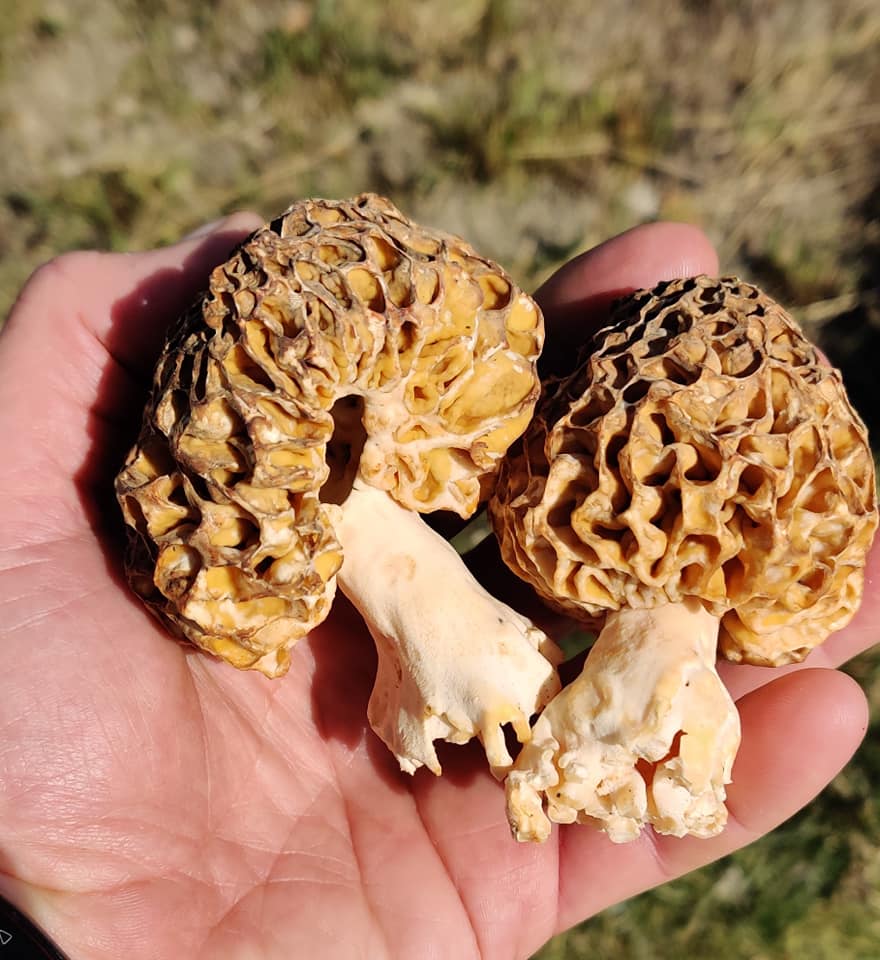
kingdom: Fungi
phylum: Ascomycota
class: Pezizomycetes
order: Pezizales
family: Morchellaceae
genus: Morchella
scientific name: Morchella esculenta
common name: spiselig morkel
